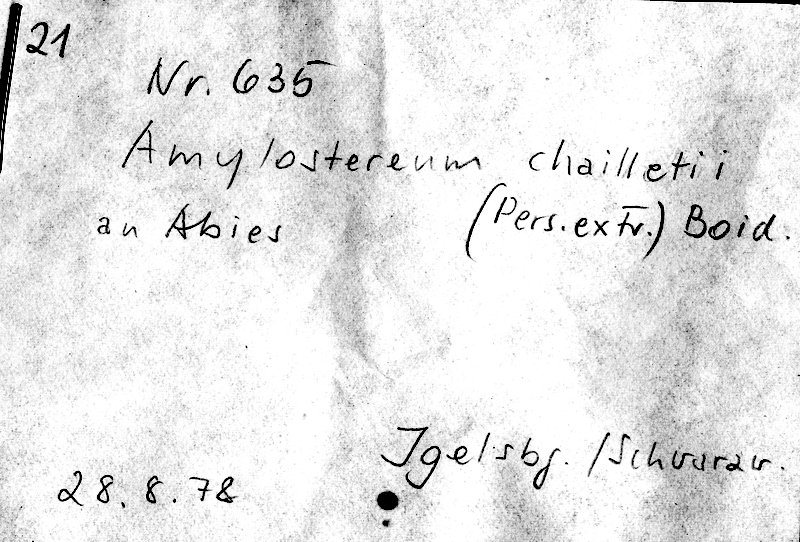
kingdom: Plantae
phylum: Tracheophyta
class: Pinopsida
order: Pinales
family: Pinaceae
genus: Abies
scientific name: Abies
